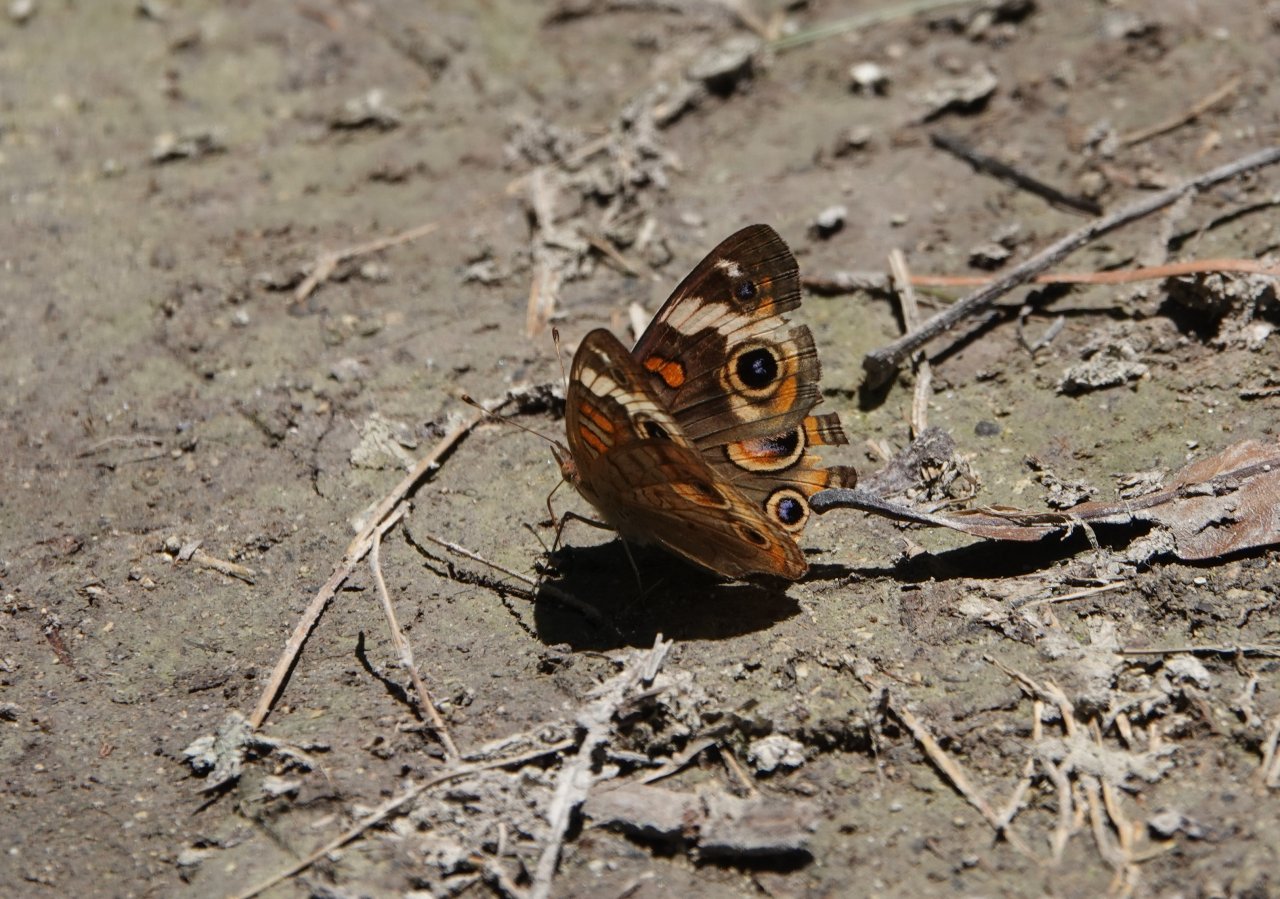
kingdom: Animalia
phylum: Arthropoda
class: Insecta
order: Lepidoptera
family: Nymphalidae
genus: Junonia
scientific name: Junonia coenia
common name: Common Buckeye
